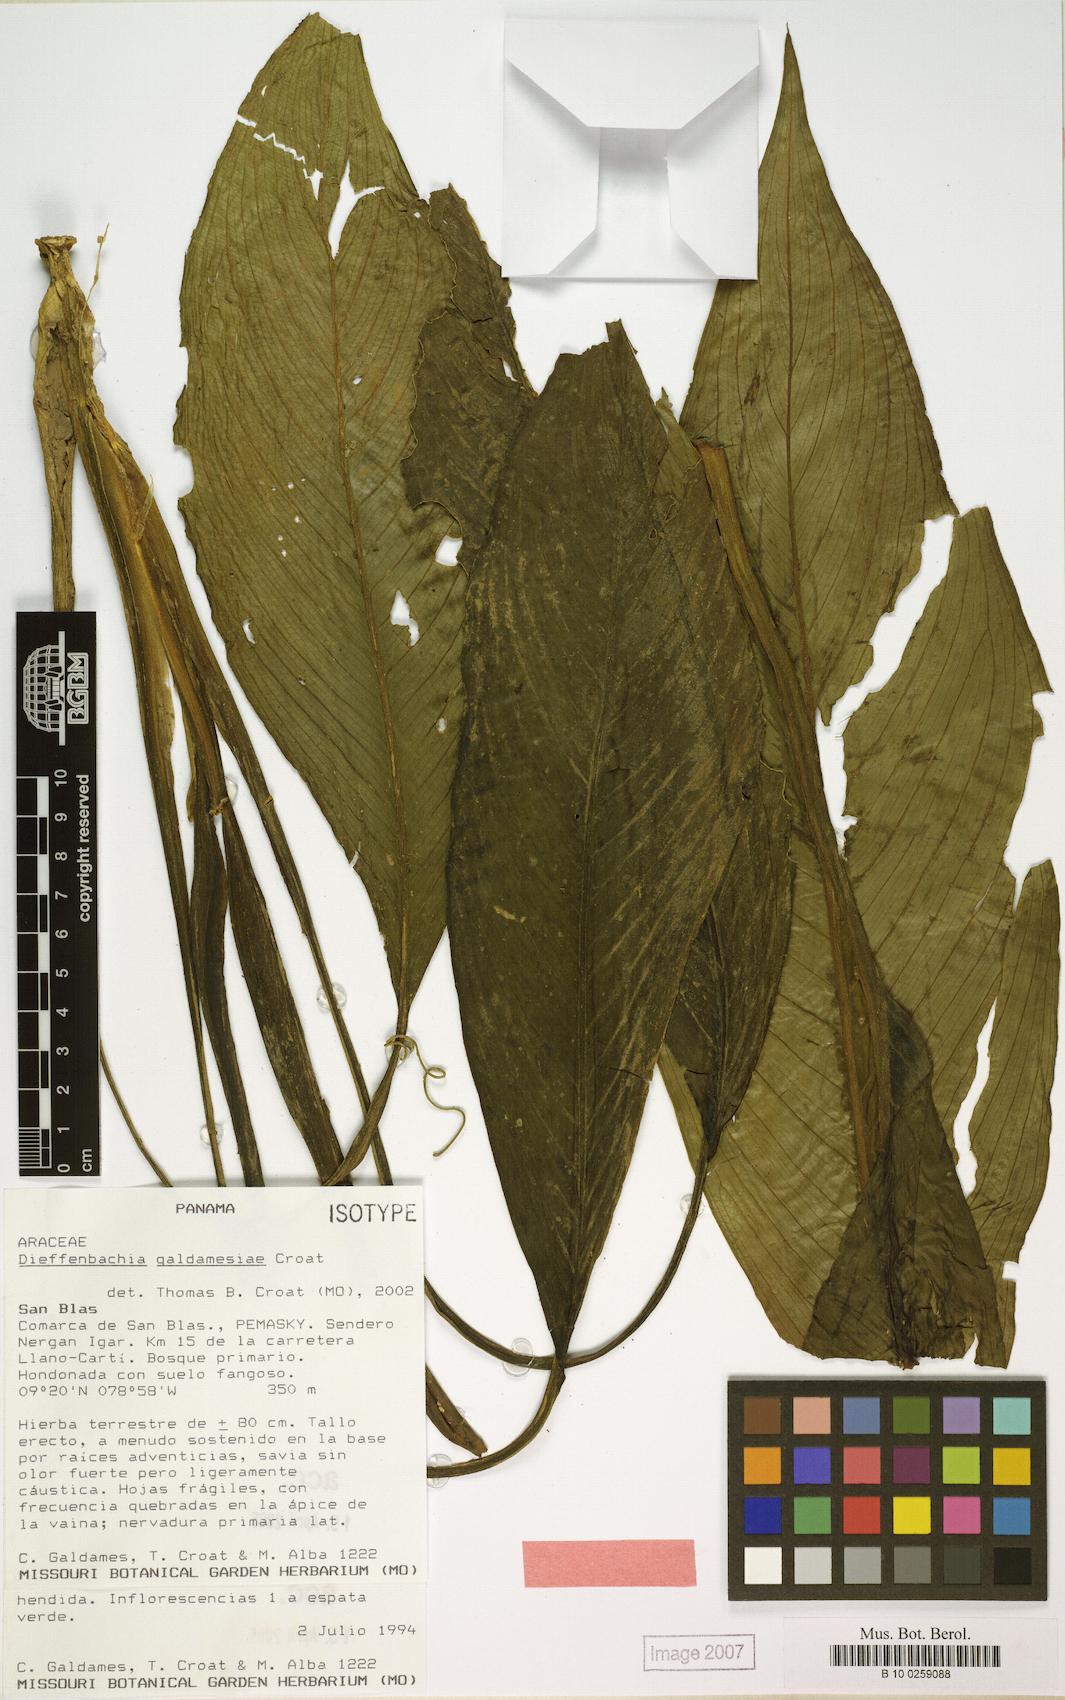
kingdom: Plantae
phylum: Tracheophyta
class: Liliopsida
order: Alismatales
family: Araceae
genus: Dieffenbachia
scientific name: Dieffenbachia galdamesiae
